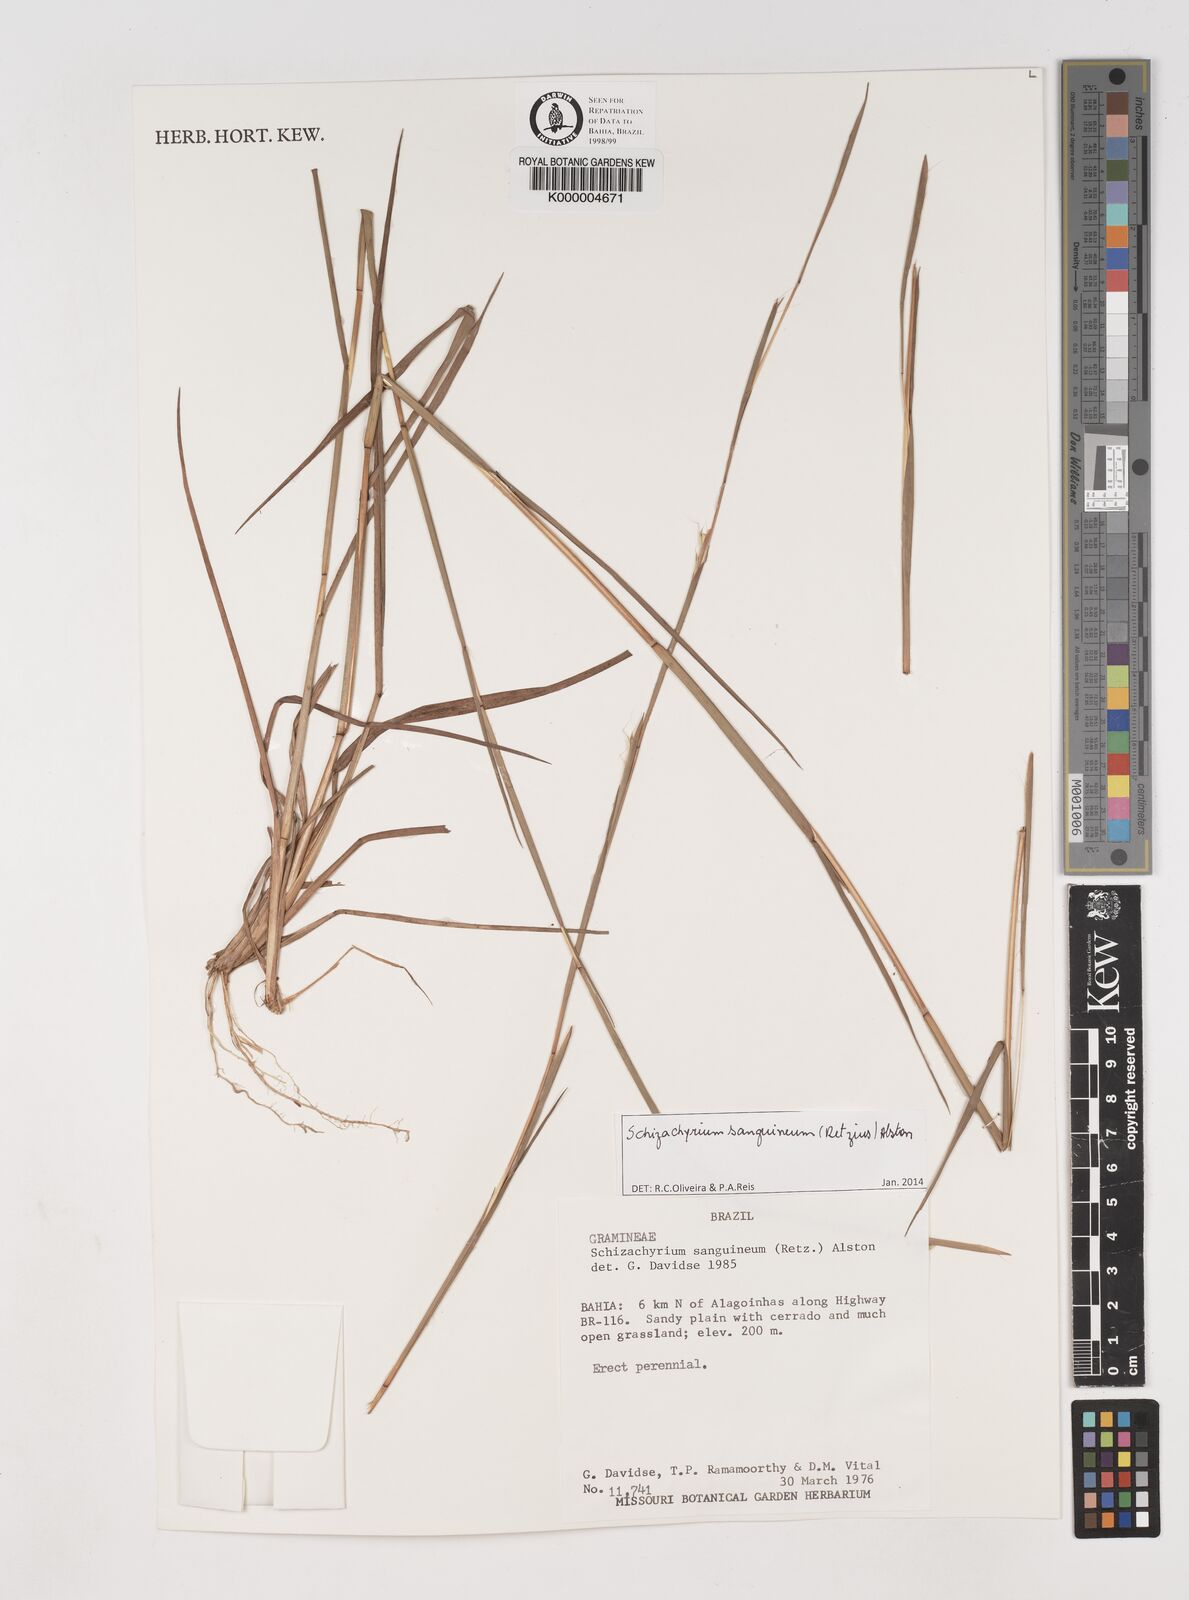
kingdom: Plantae
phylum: Tracheophyta
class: Liliopsida
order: Poales
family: Poaceae
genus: Schizachyrium
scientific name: Schizachyrium sanguineum
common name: Crimson bluestem
